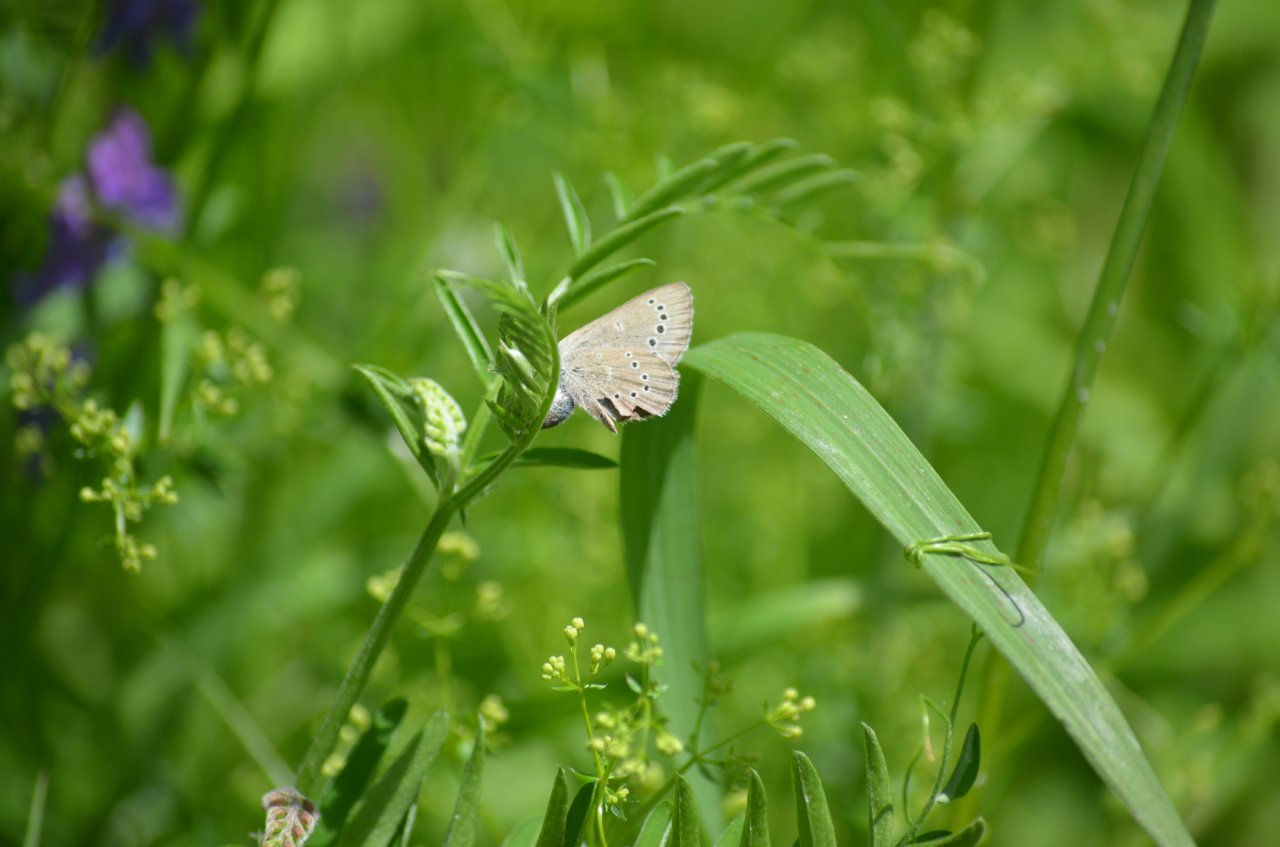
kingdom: Animalia
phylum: Arthropoda
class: Insecta
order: Lepidoptera
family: Lycaenidae
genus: Glaucopsyche
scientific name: Glaucopsyche lygdamus
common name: Silvery Blue
